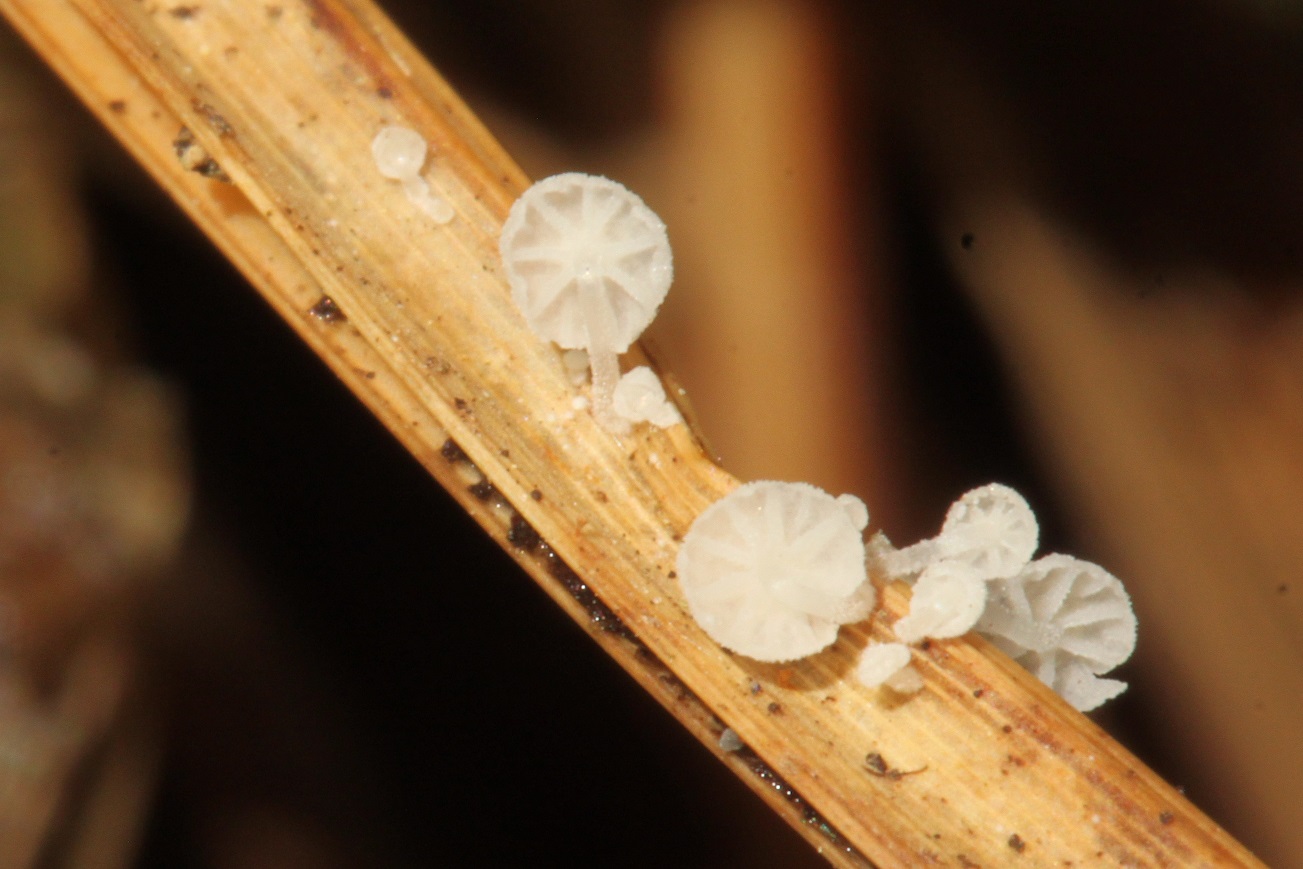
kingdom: Fungi
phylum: Basidiomycota
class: Agaricomycetes
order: Agaricales
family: Mycenaceae
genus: Resinomycena
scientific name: Resinomycena saccharifera
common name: sukkerhat
